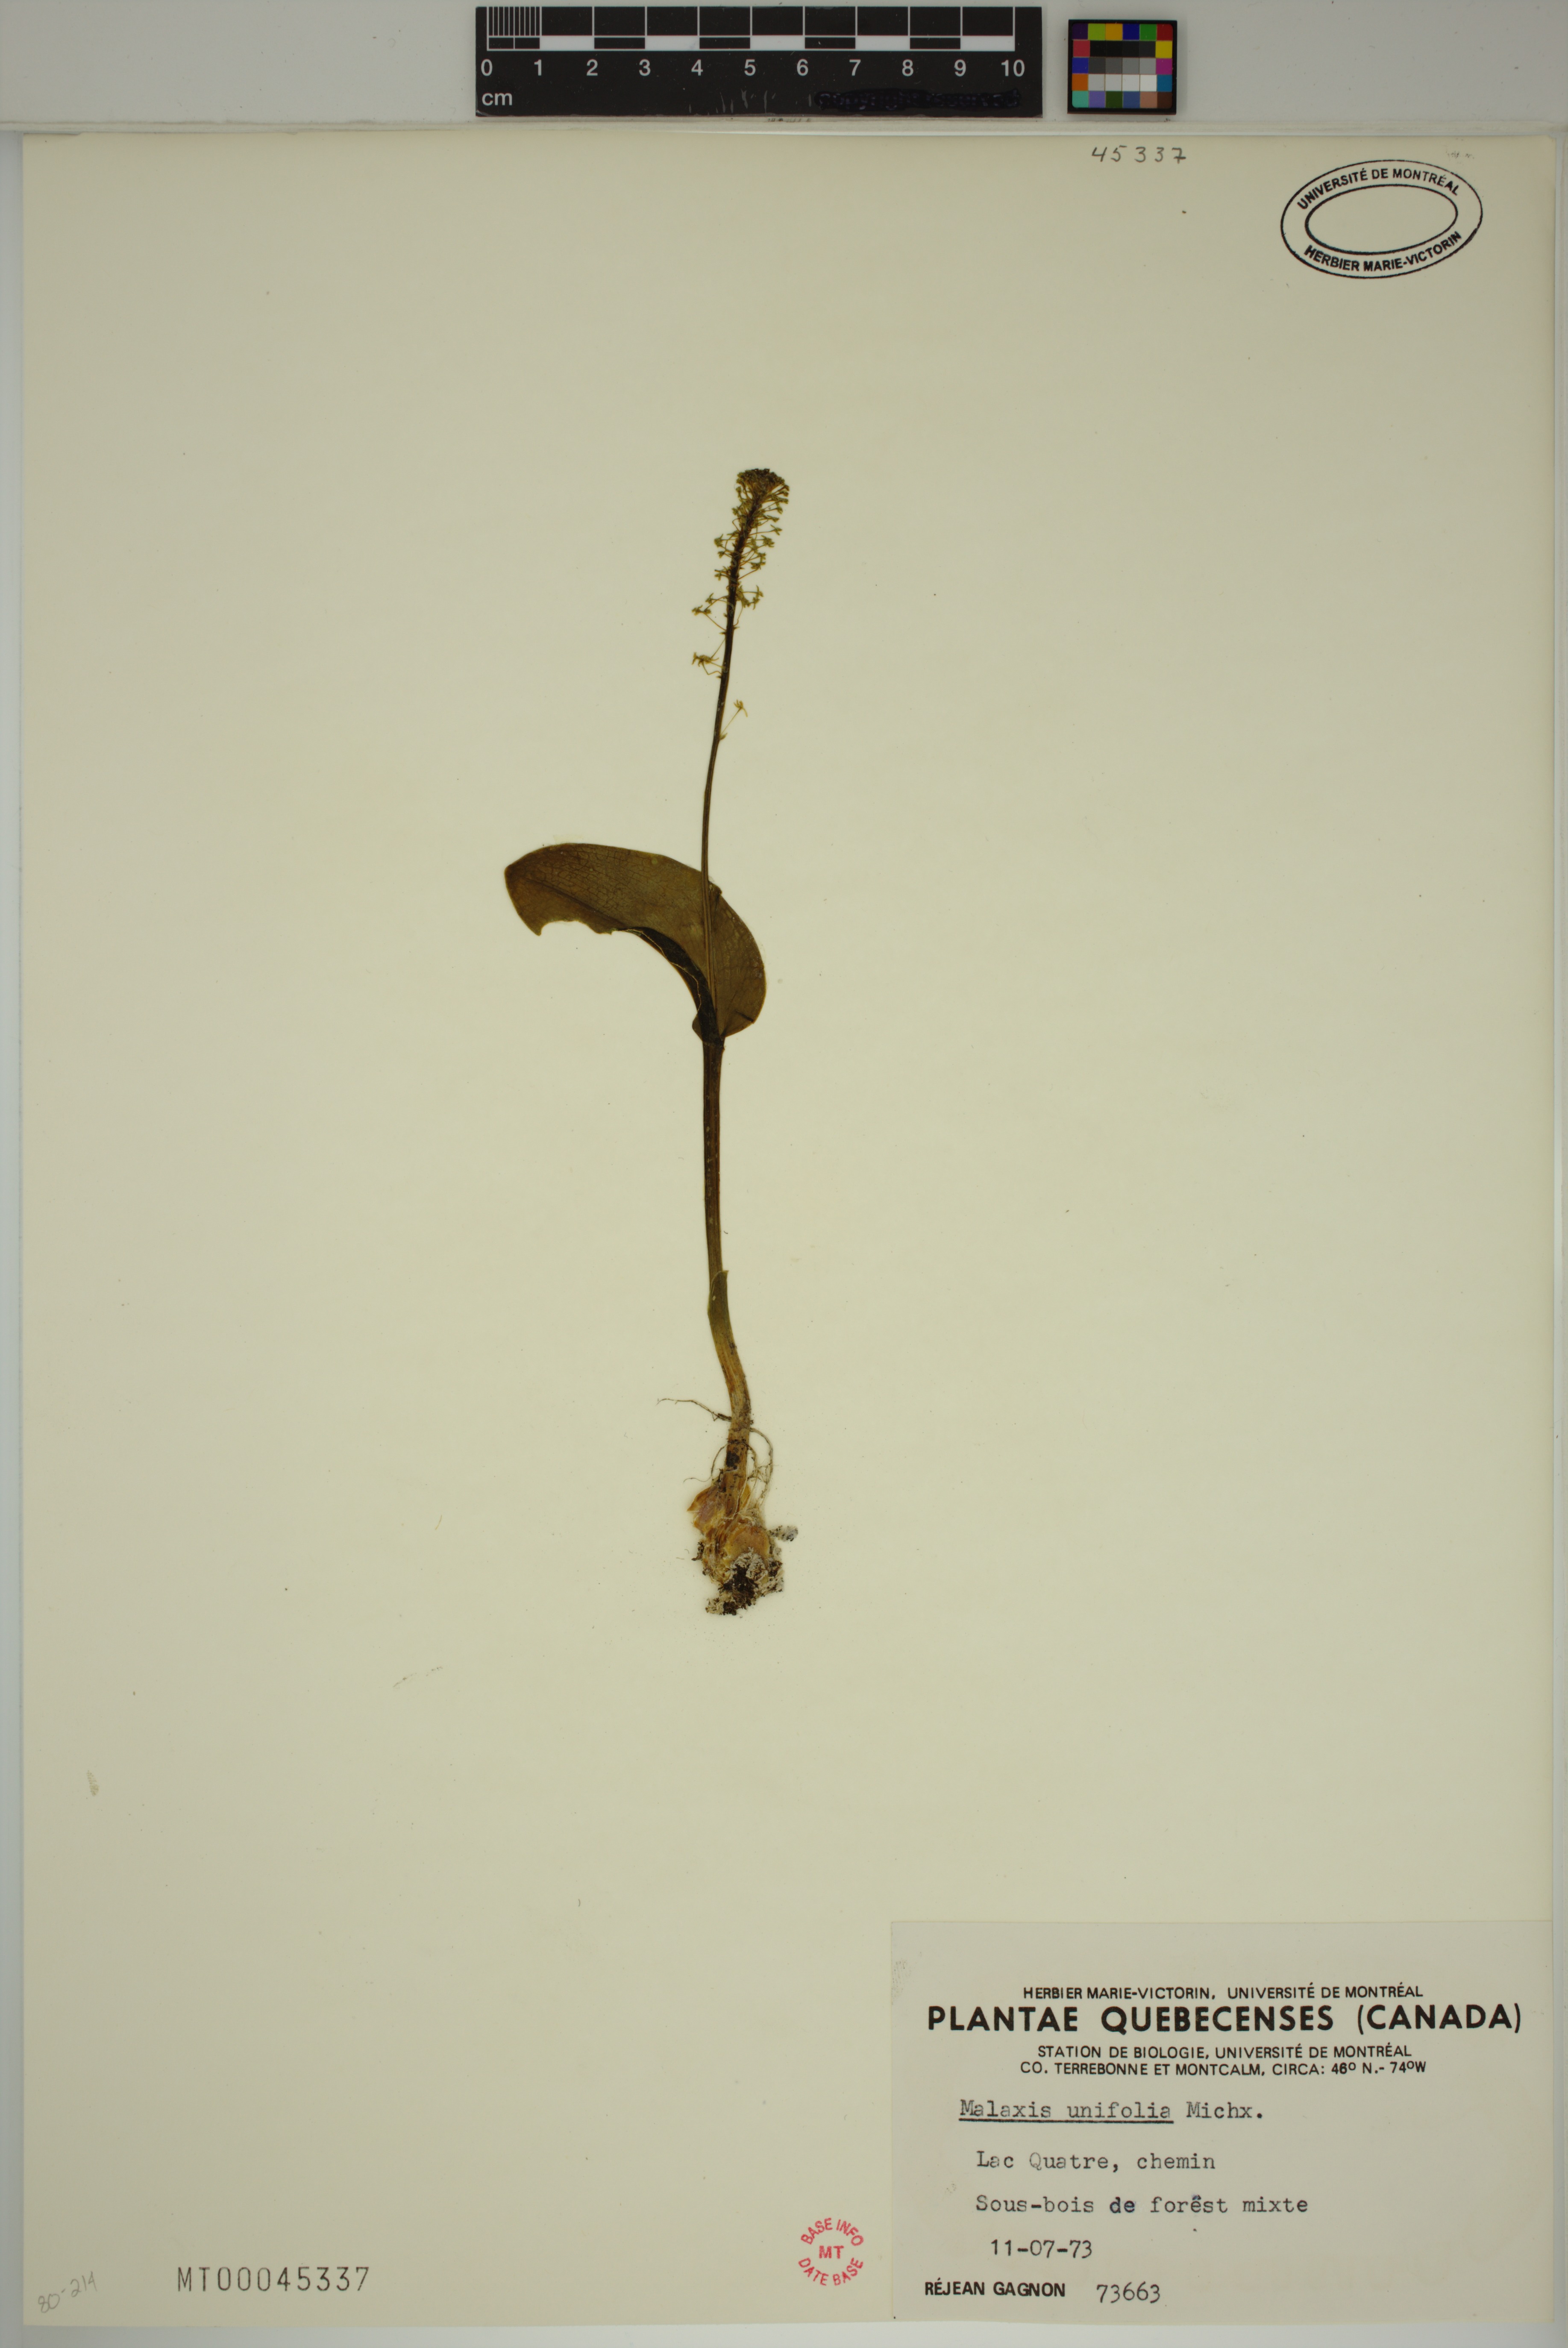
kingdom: Plantae
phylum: Tracheophyta
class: Liliopsida
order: Asparagales
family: Orchidaceae
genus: Malaxis
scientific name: Malaxis unifolia
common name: Green adder's-mouth
